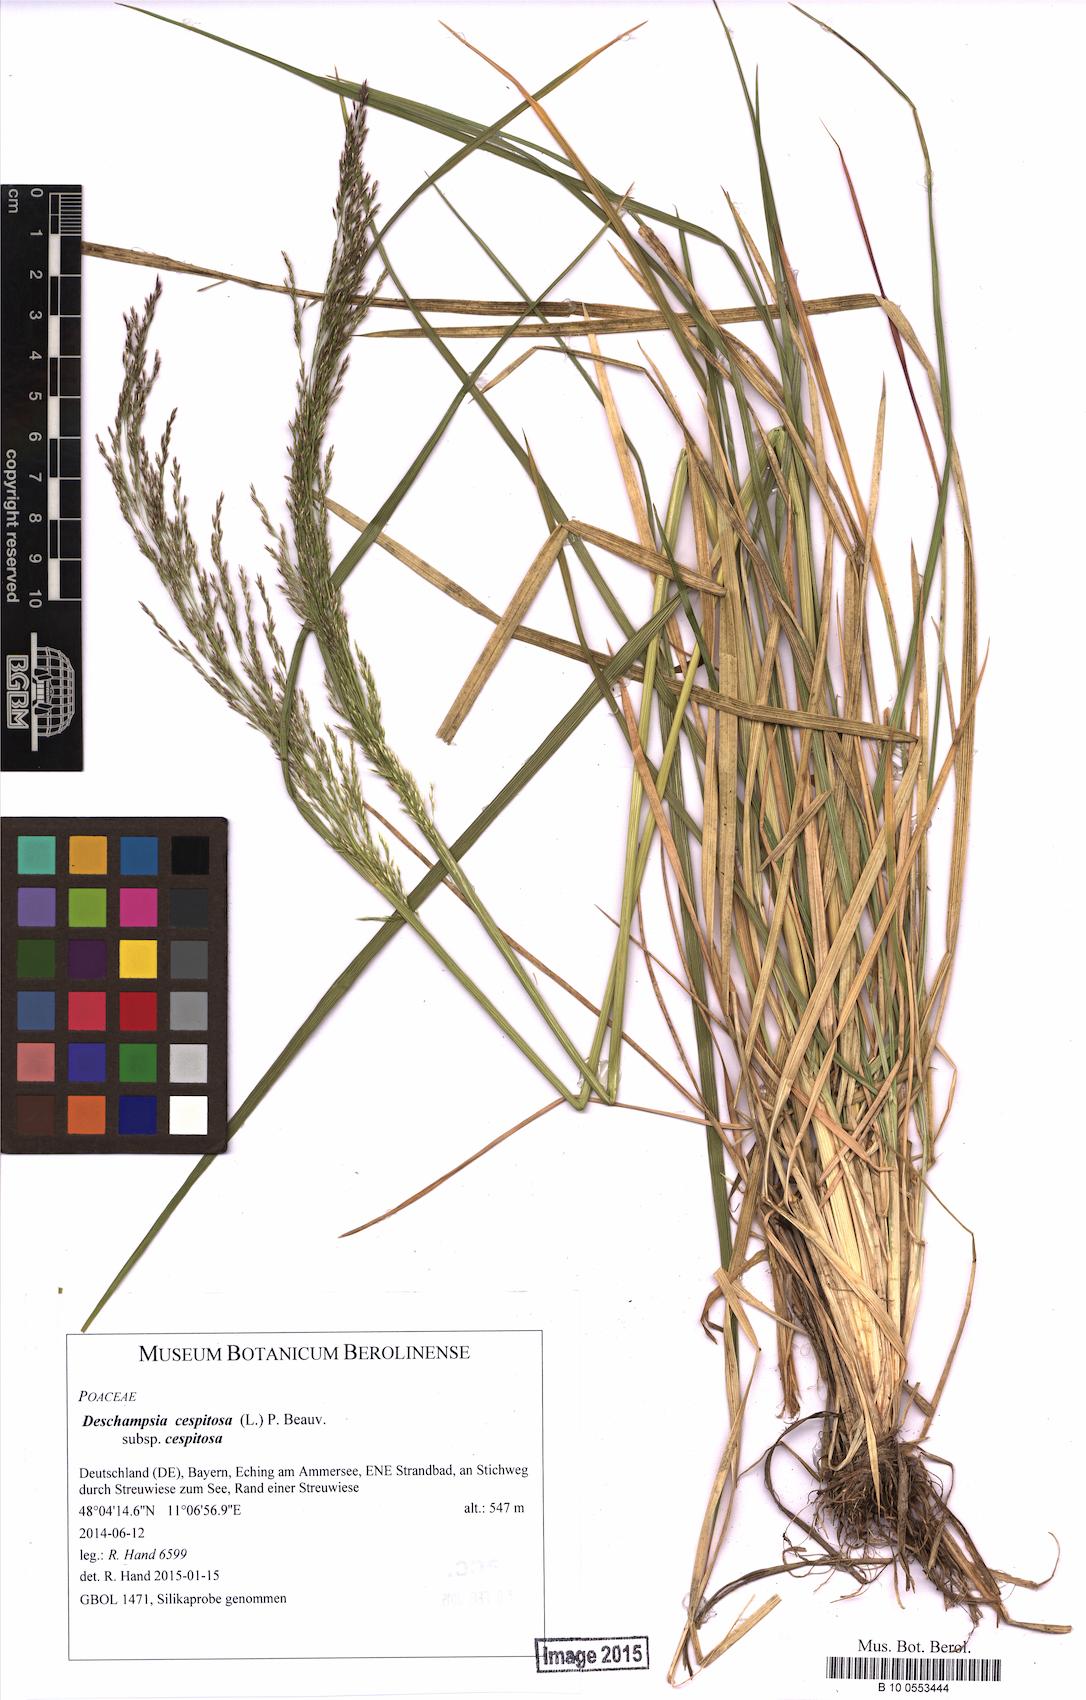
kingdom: Plantae
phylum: Tracheophyta
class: Liliopsida
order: Poales
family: Poaceae
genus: Deschampsia
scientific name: Deschampsia cespitosa
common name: Tufted hair-grass
